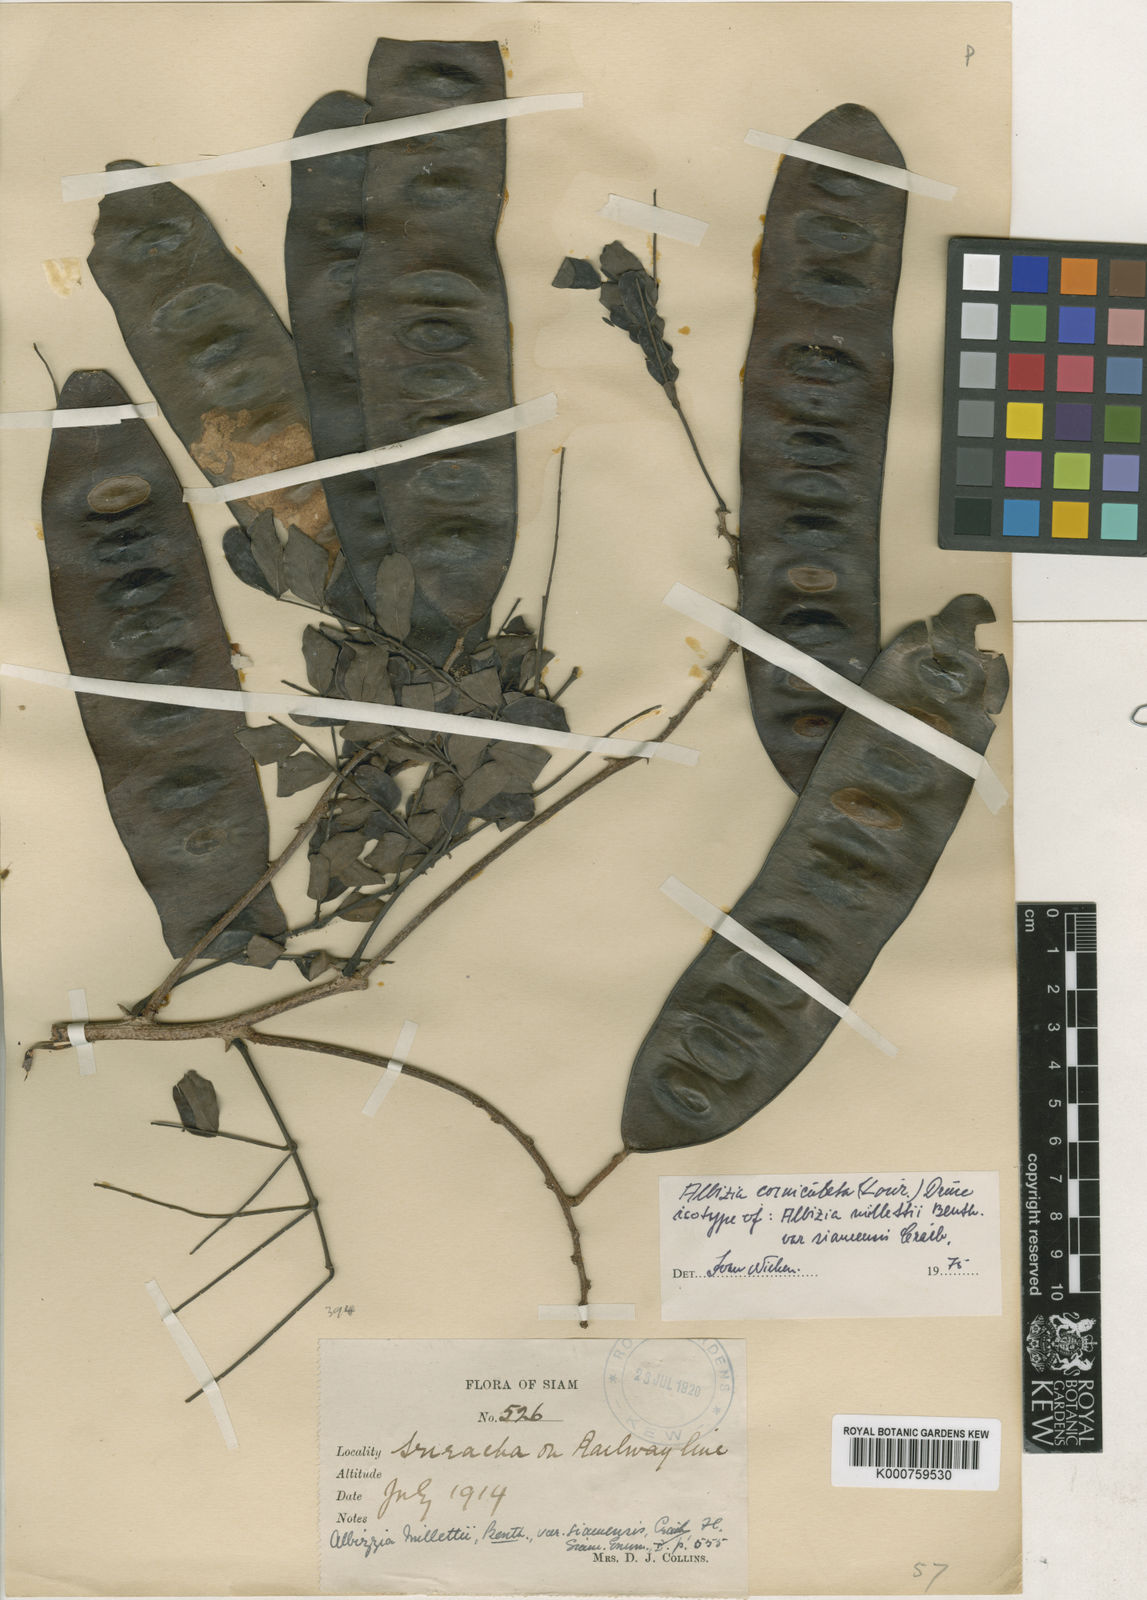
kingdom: Plantae
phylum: Tracheophyta
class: Magnoliopsida
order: Fabales
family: Fabaceae
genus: Albizia
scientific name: Albizia corniculata
